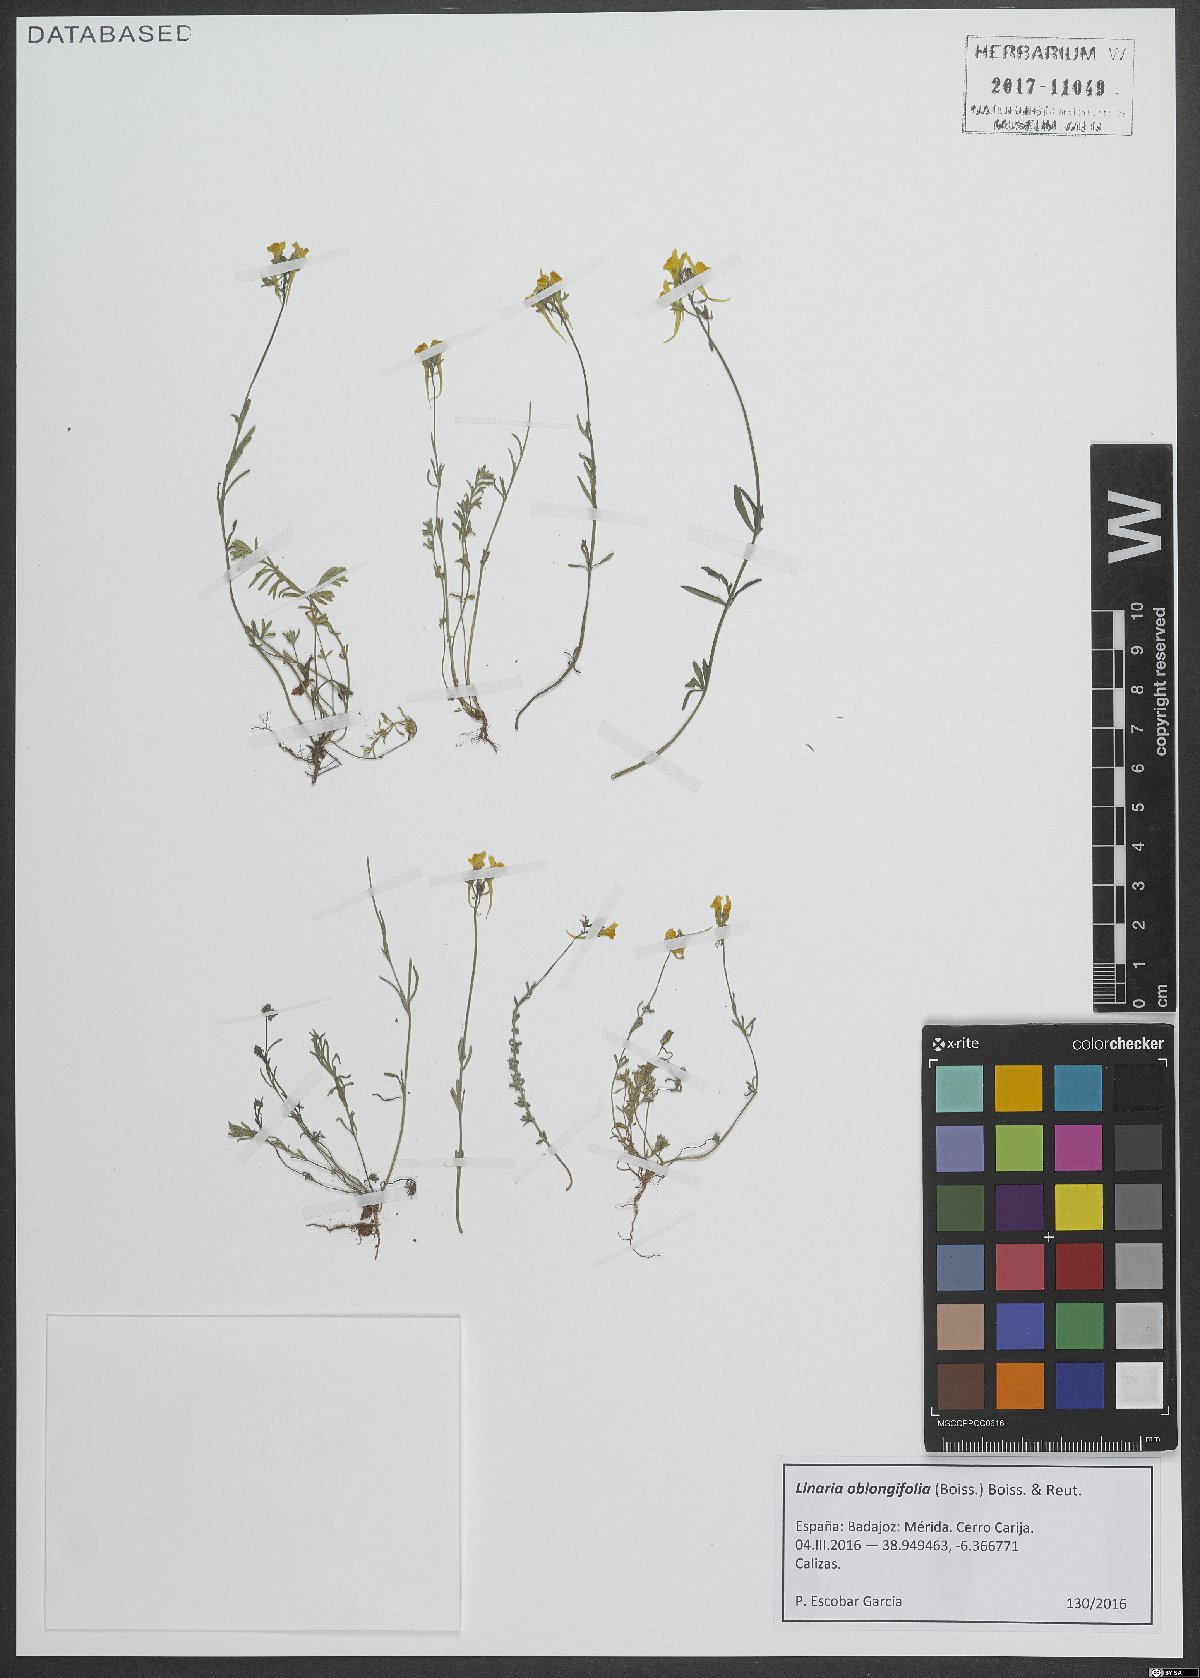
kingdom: Plantae
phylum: Tracheophyta
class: Magnoliopsida
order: Lamiales
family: Plantaginaceae
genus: Linaria
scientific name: Linaria oblongifolia
